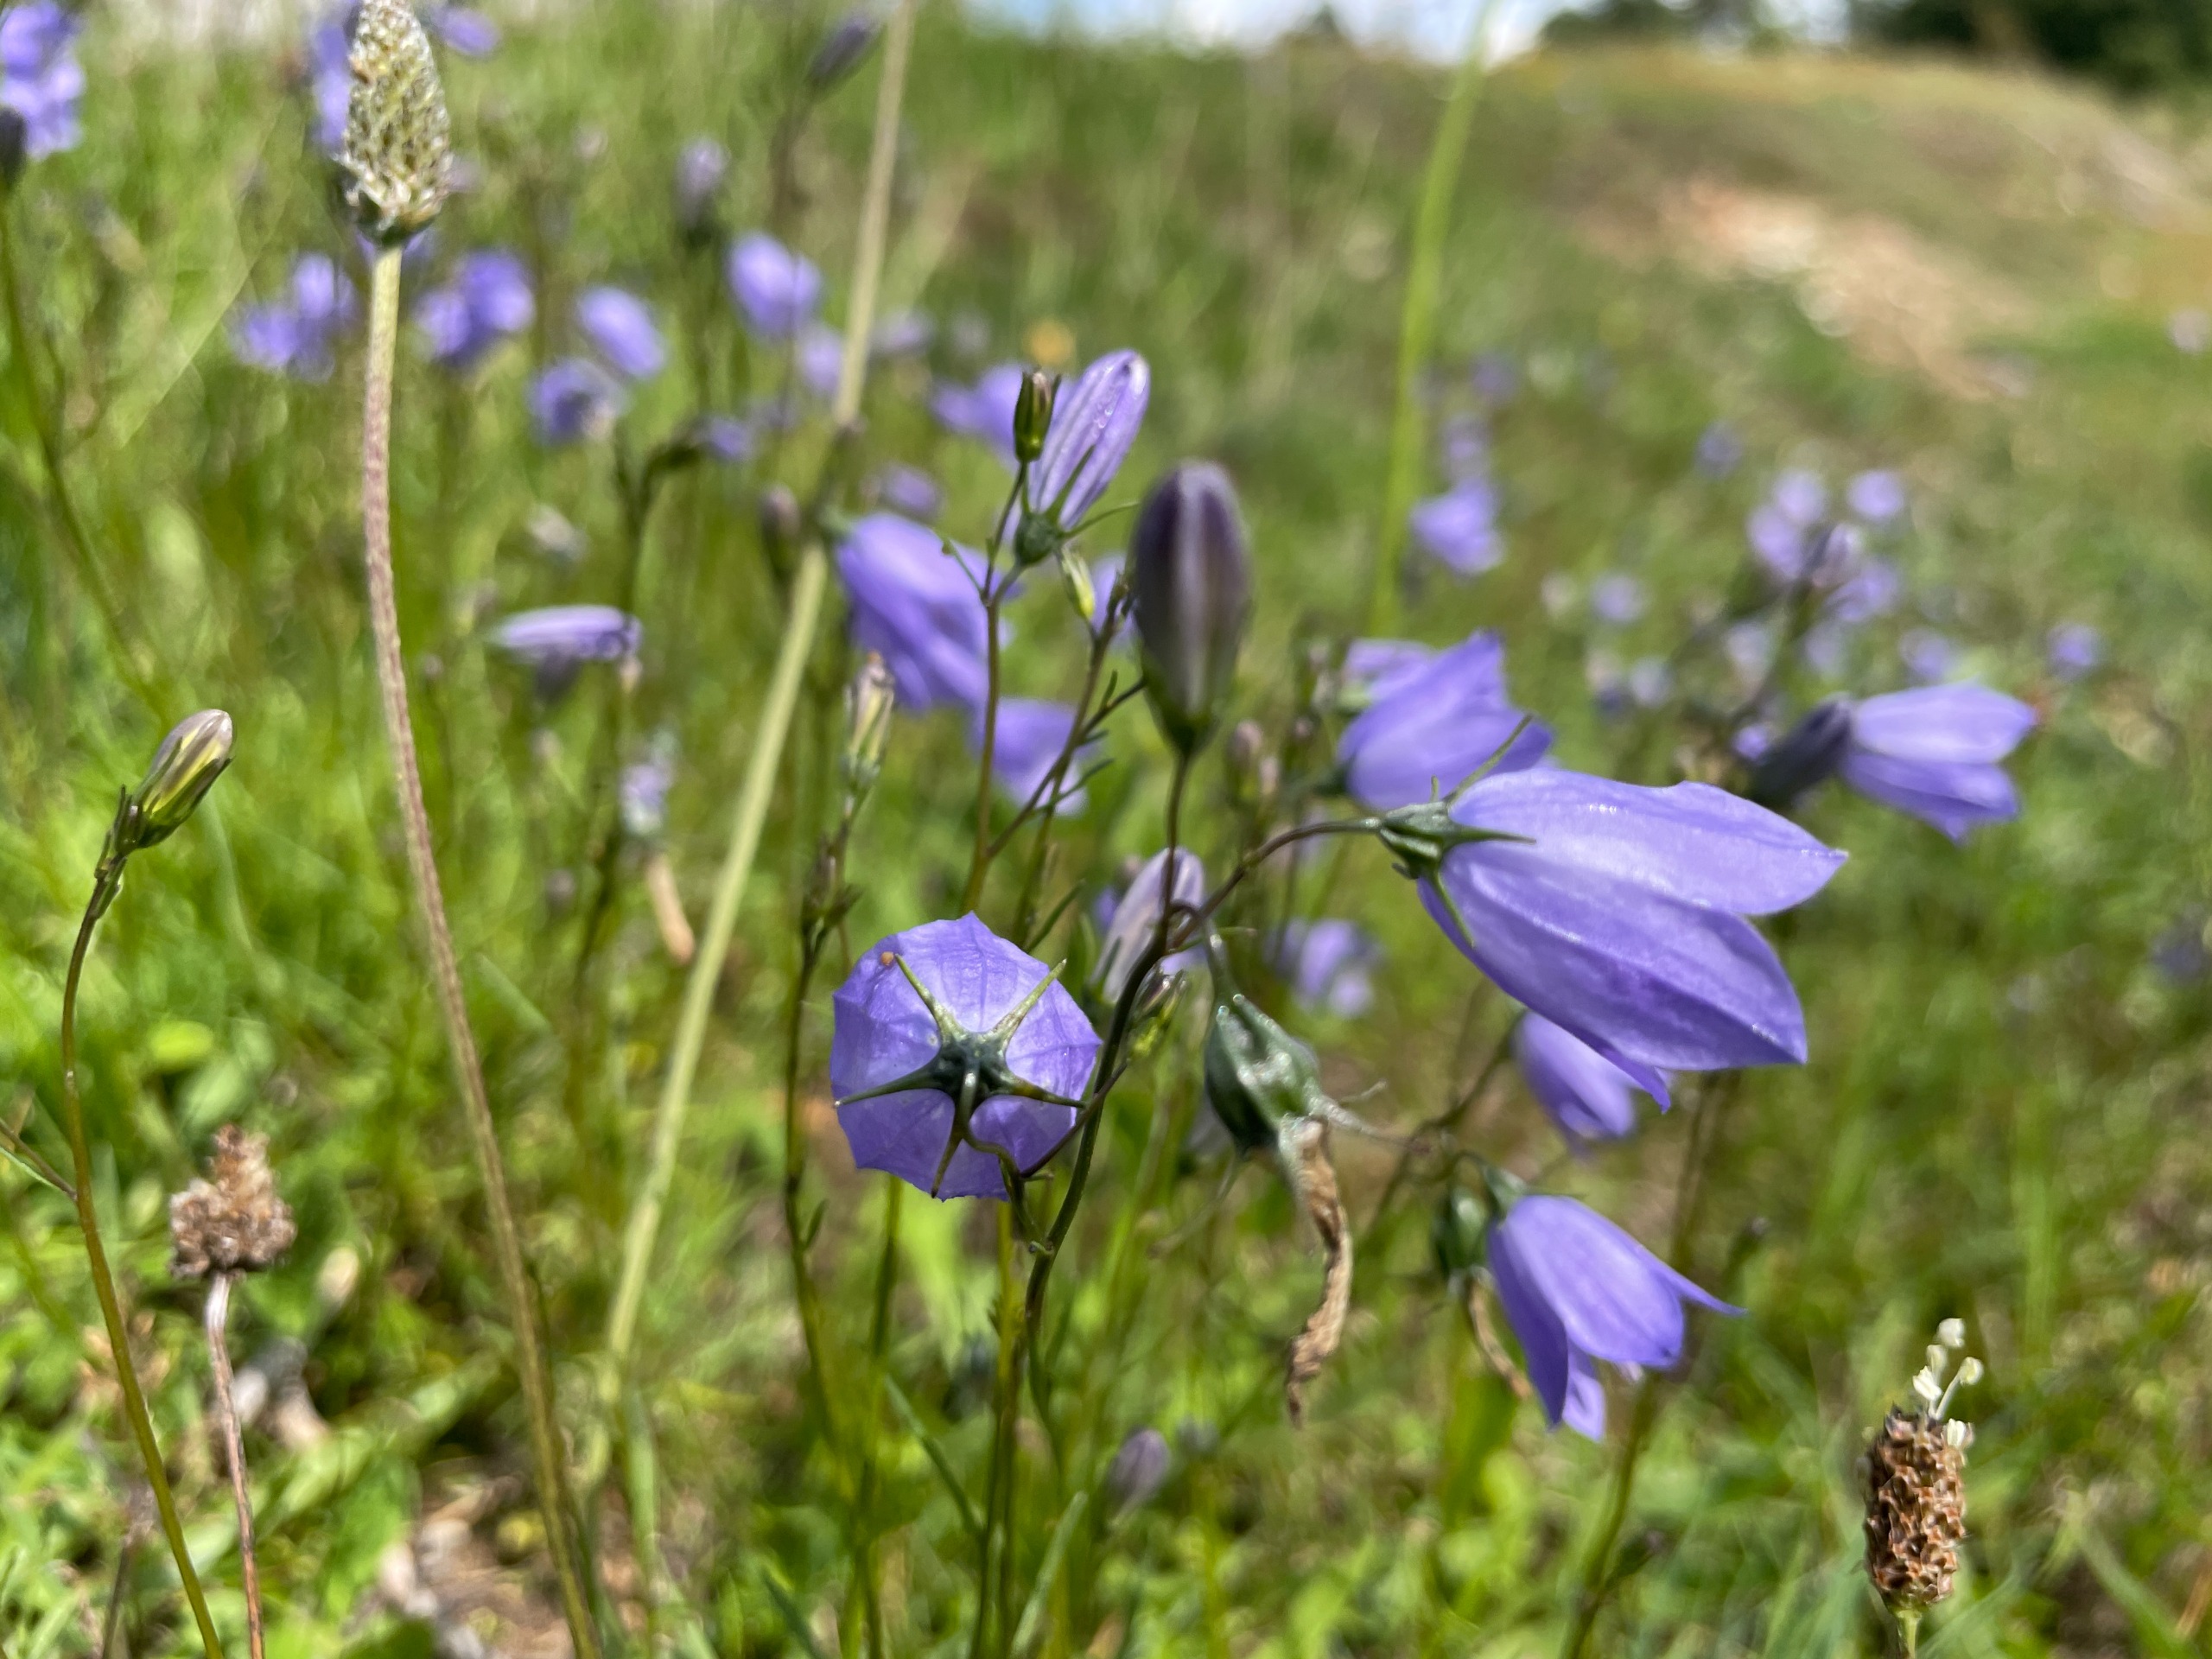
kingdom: Plantae
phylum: Tracheophyta
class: Magnoliopsida
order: Asterales
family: Campanulaceae
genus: Campanula
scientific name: Campanula rotundifolia
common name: Liden klokke
